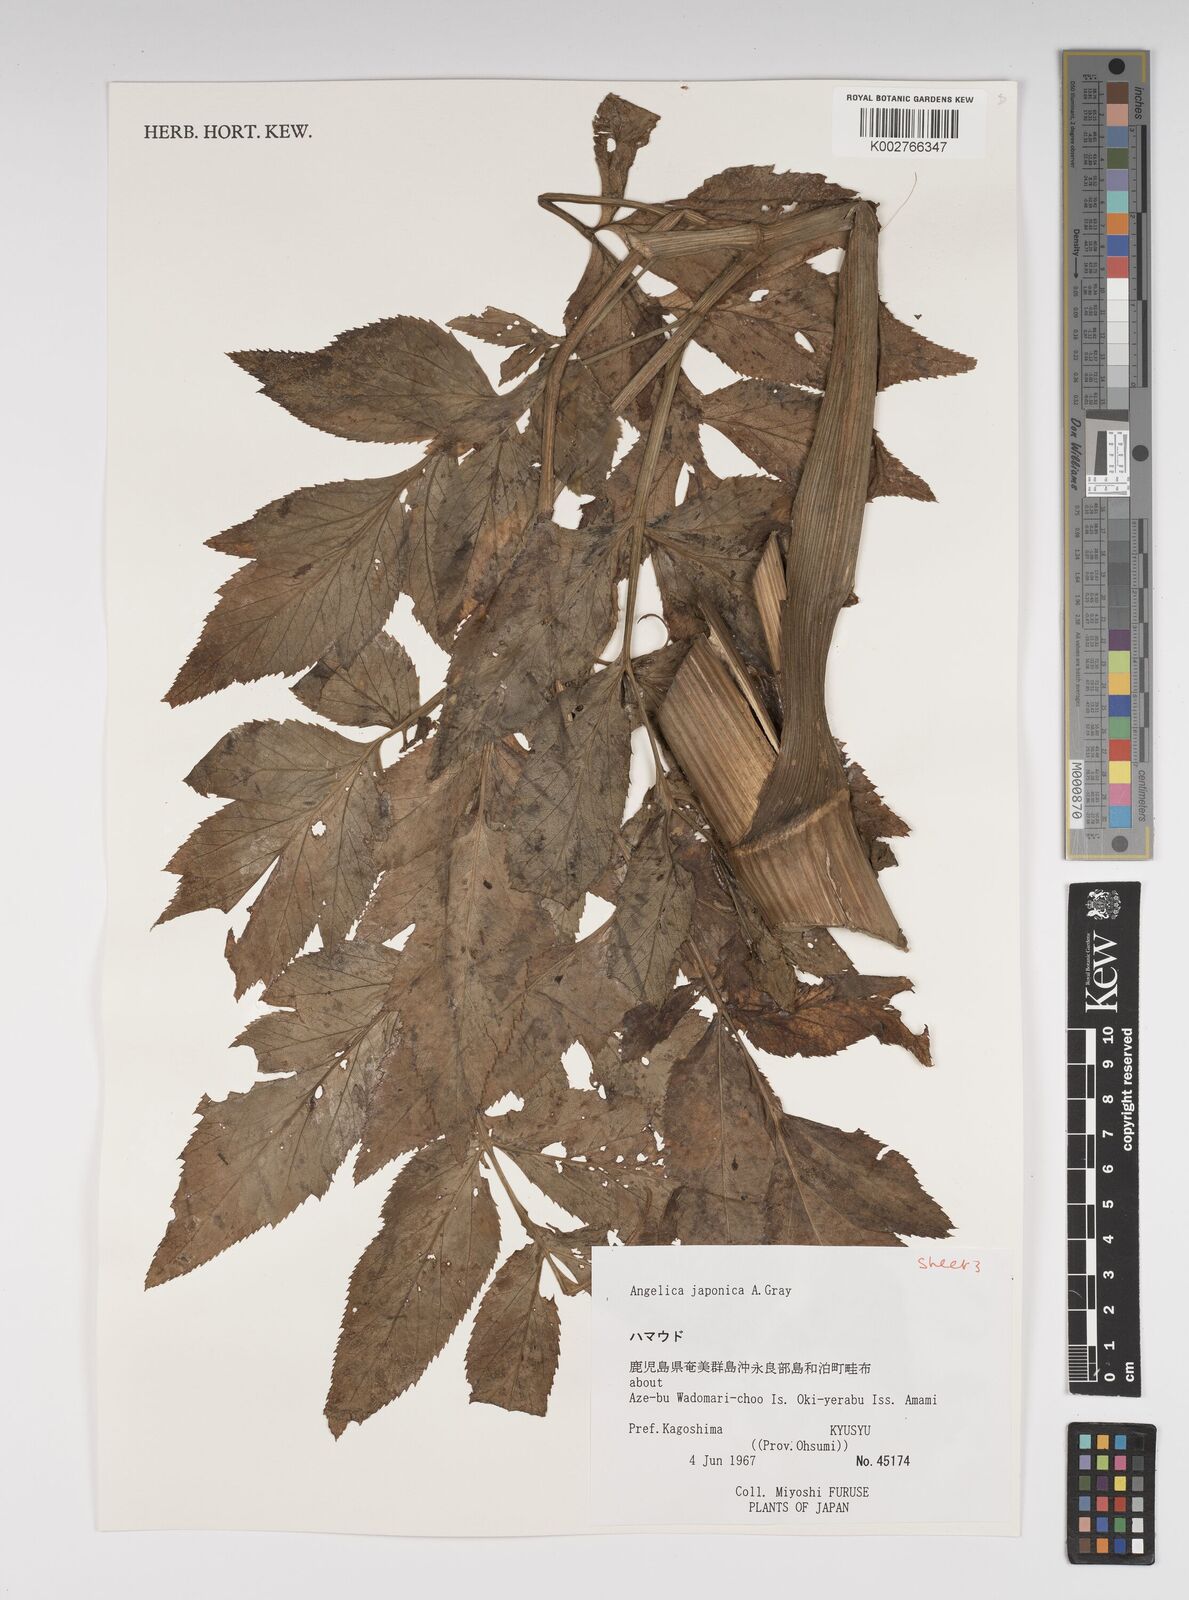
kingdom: Plantae
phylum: Tracheophyta
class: Magnoliopsida
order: Apiales
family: Apiaceae
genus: Angelica
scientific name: Angelica japonica
